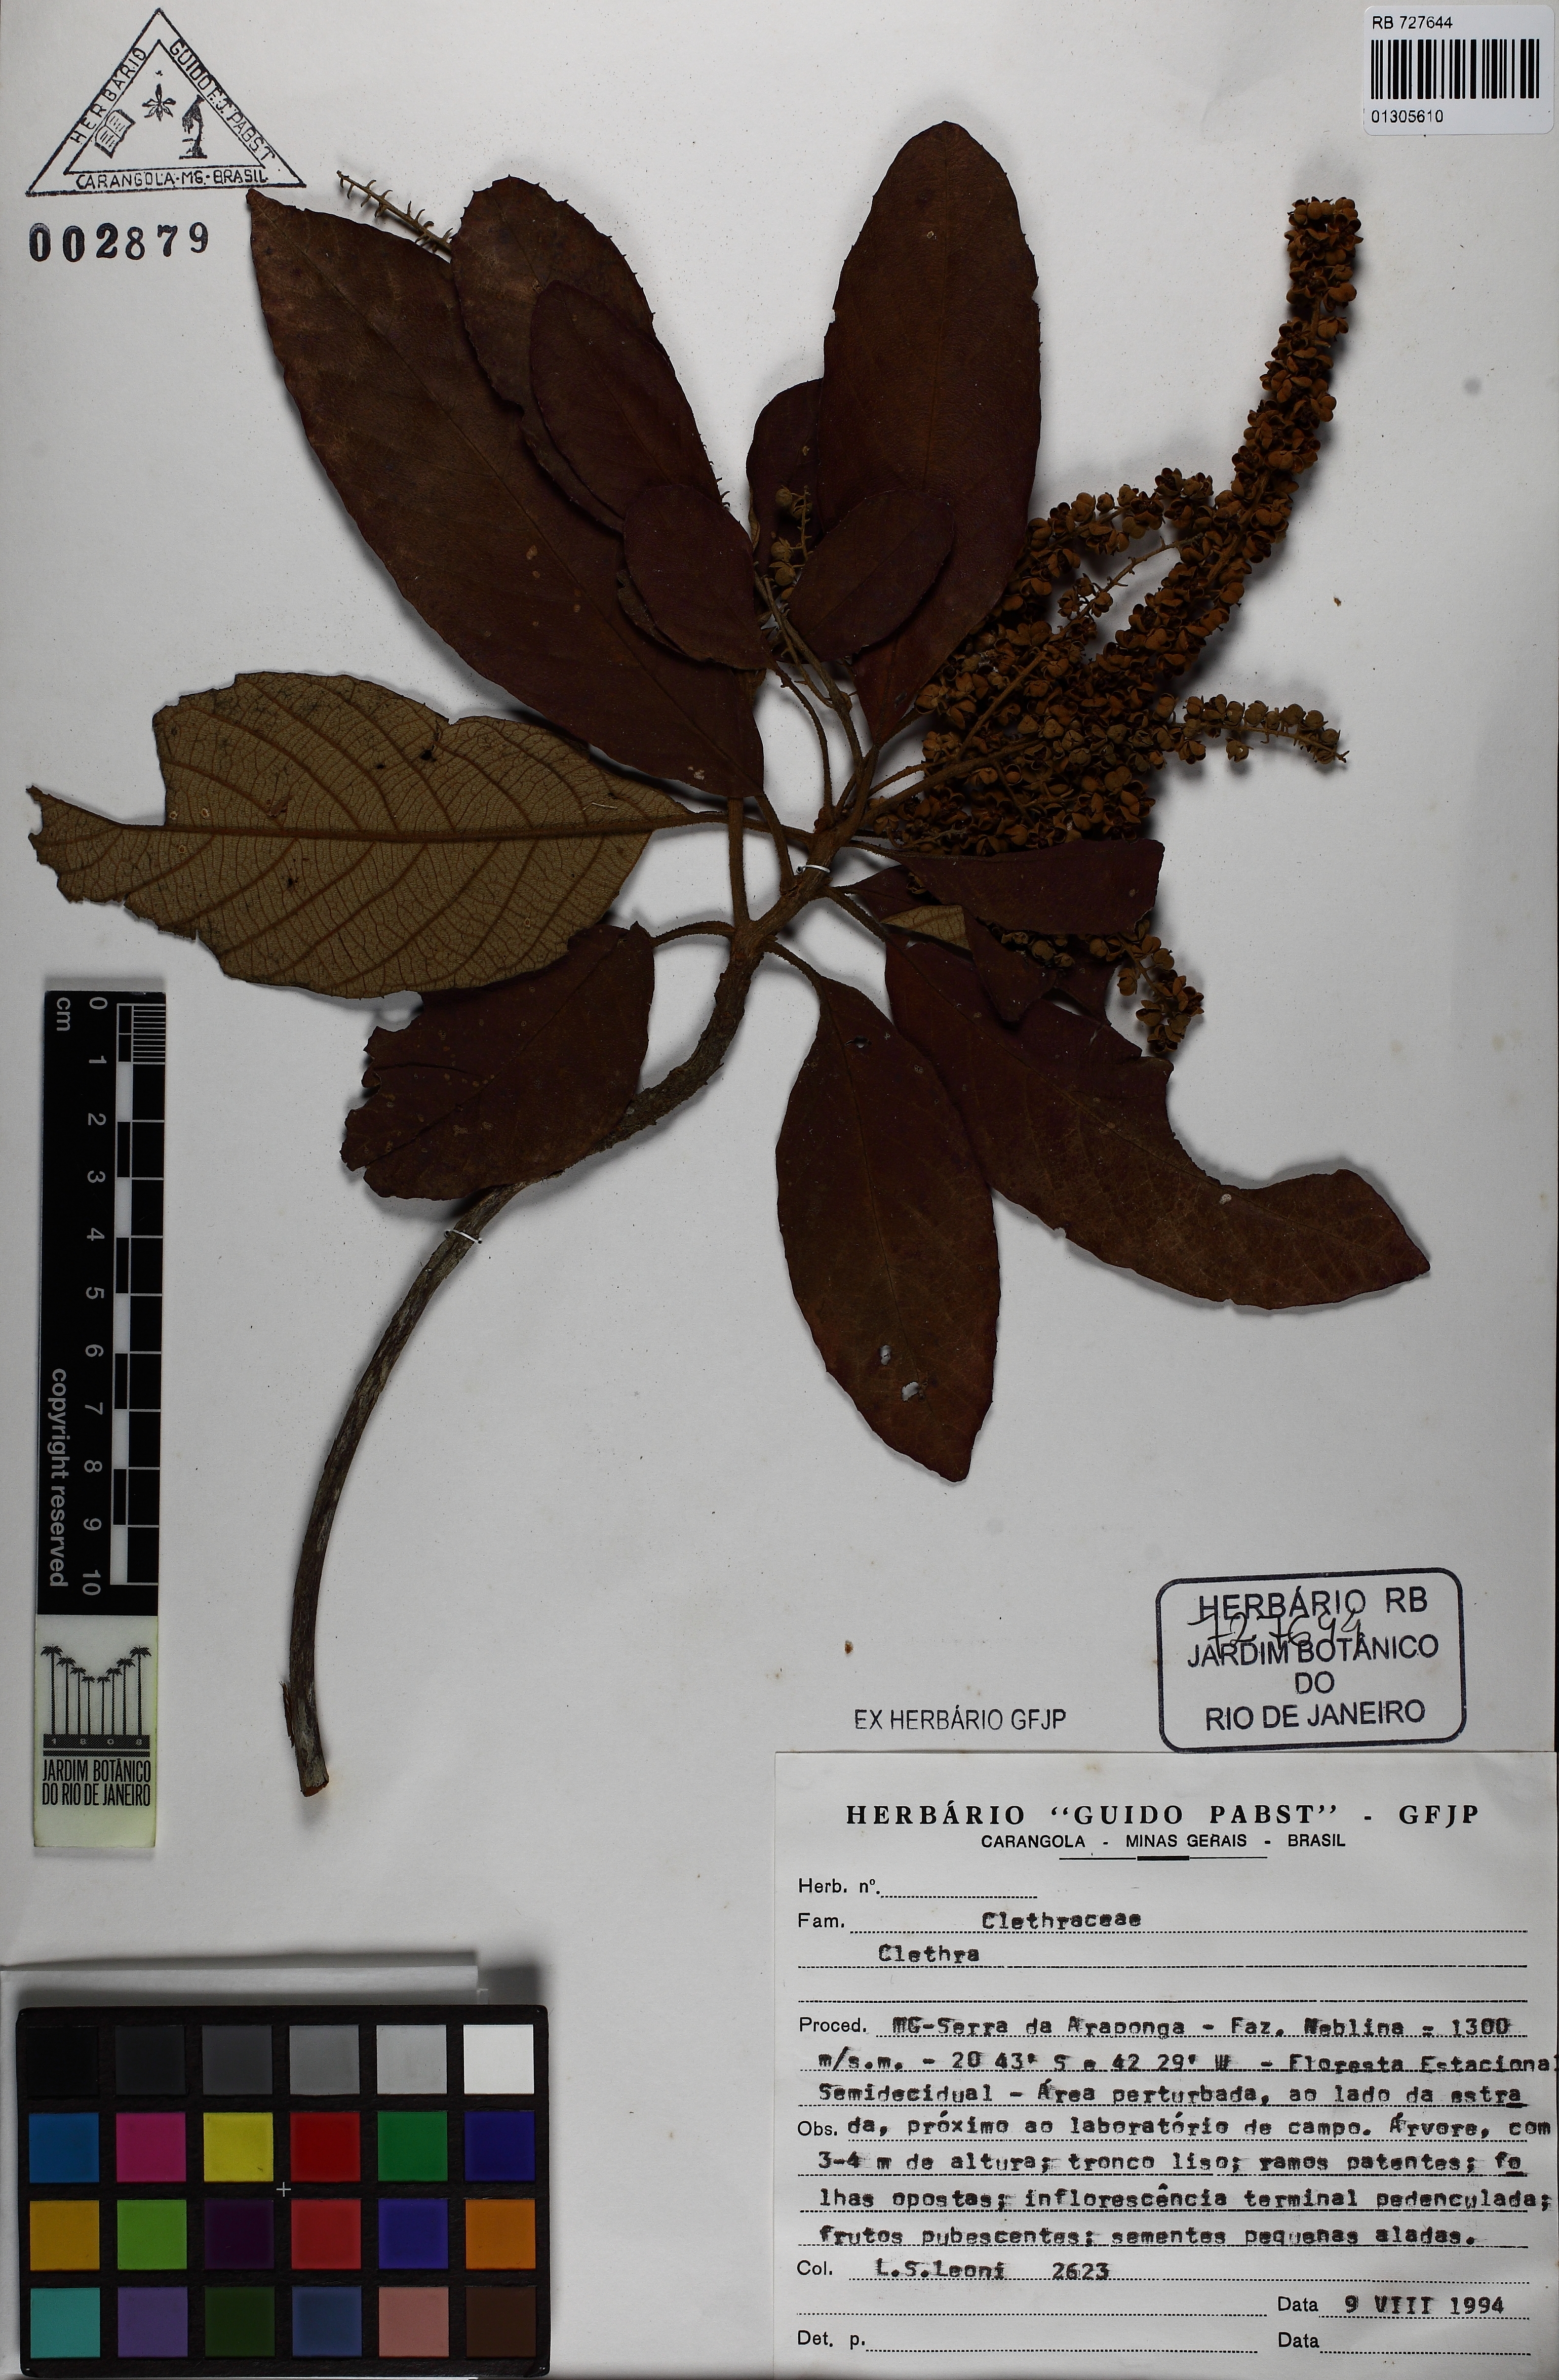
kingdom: Plantae
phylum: Tracheophyta
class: Magnoliopsida
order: Ericales
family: Clethraceae
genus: Clethra
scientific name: Clethra
